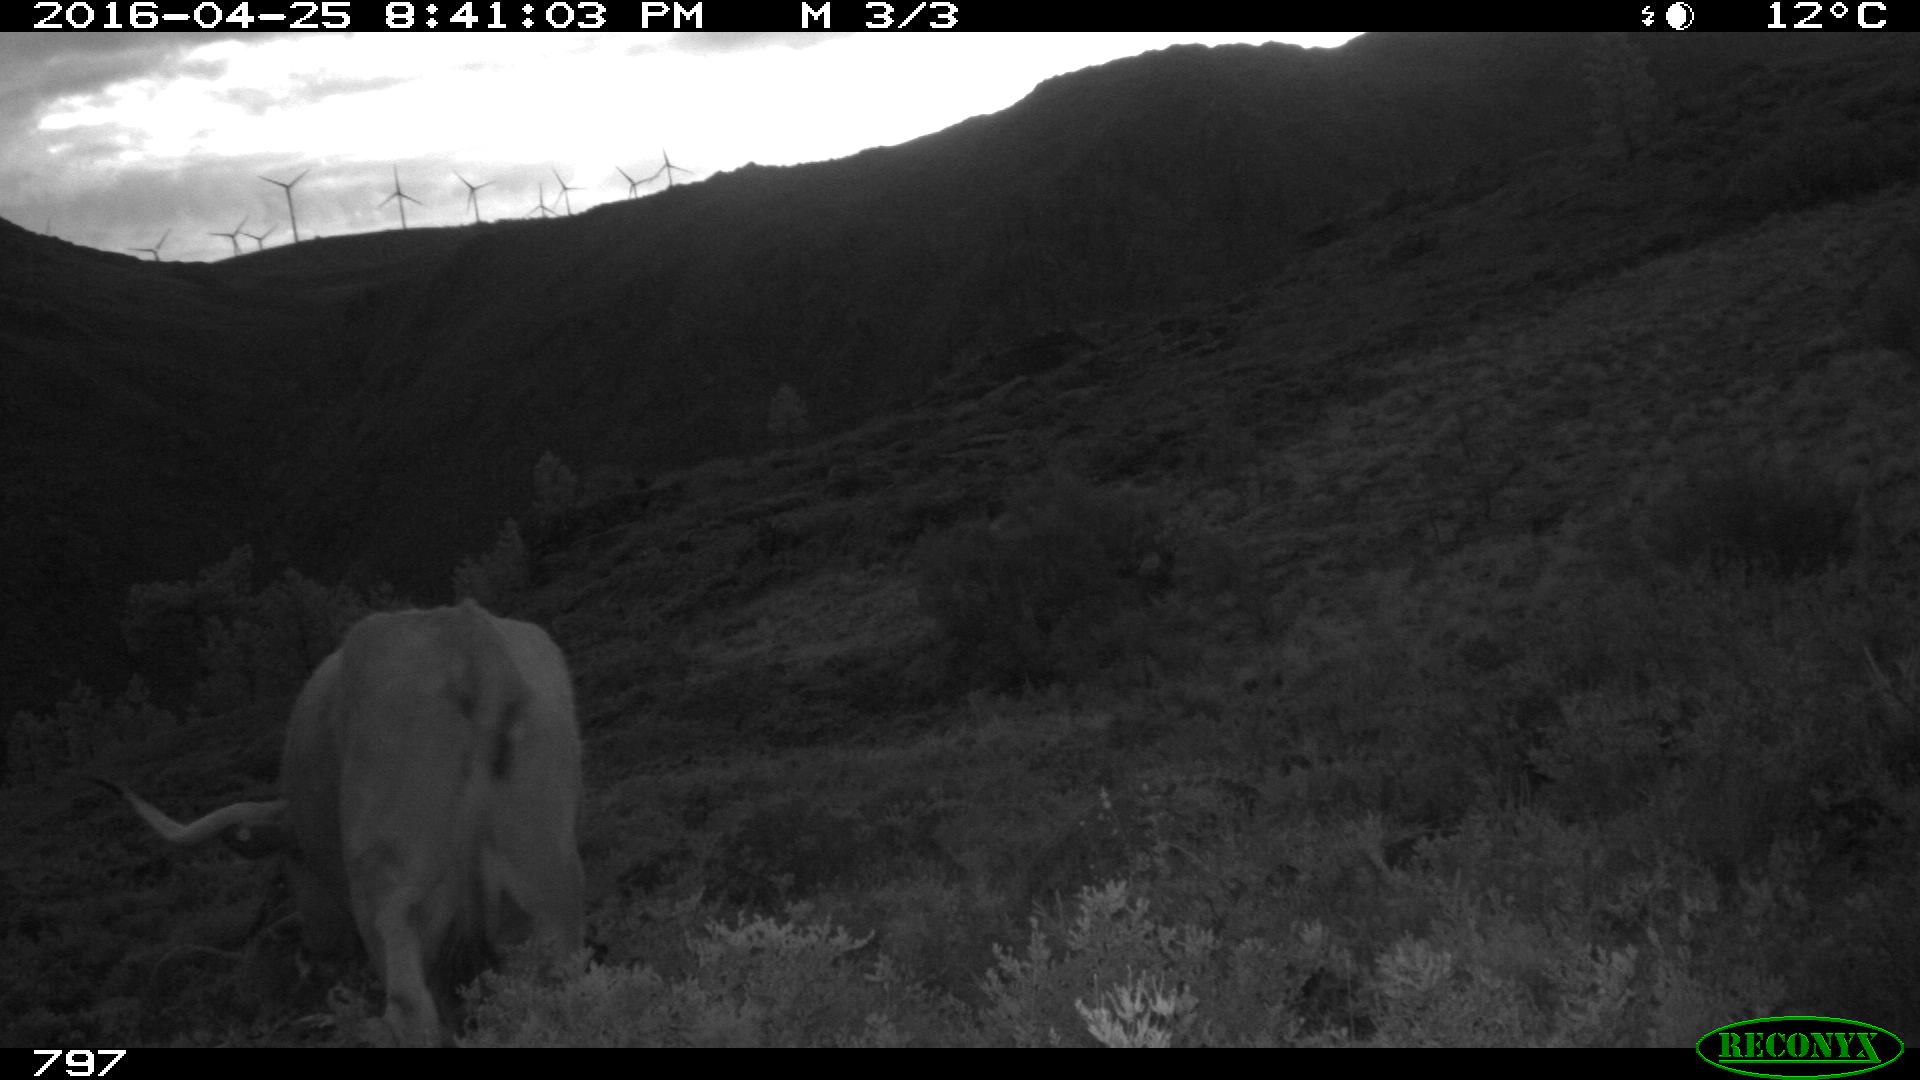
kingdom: Animalia
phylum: Chordata
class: Mammalia
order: Artiodactyla
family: Bovidae
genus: Bos
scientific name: Bos taurus
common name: Domesticated cattle
